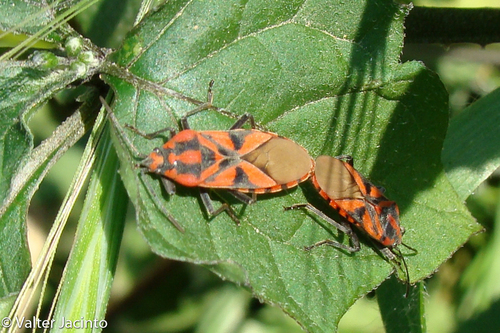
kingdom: Animalia
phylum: Arthropoda
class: Insecta
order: Hemiptera
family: Lygaeidae
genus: Spilostethus
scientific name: Spilostethus furcula
